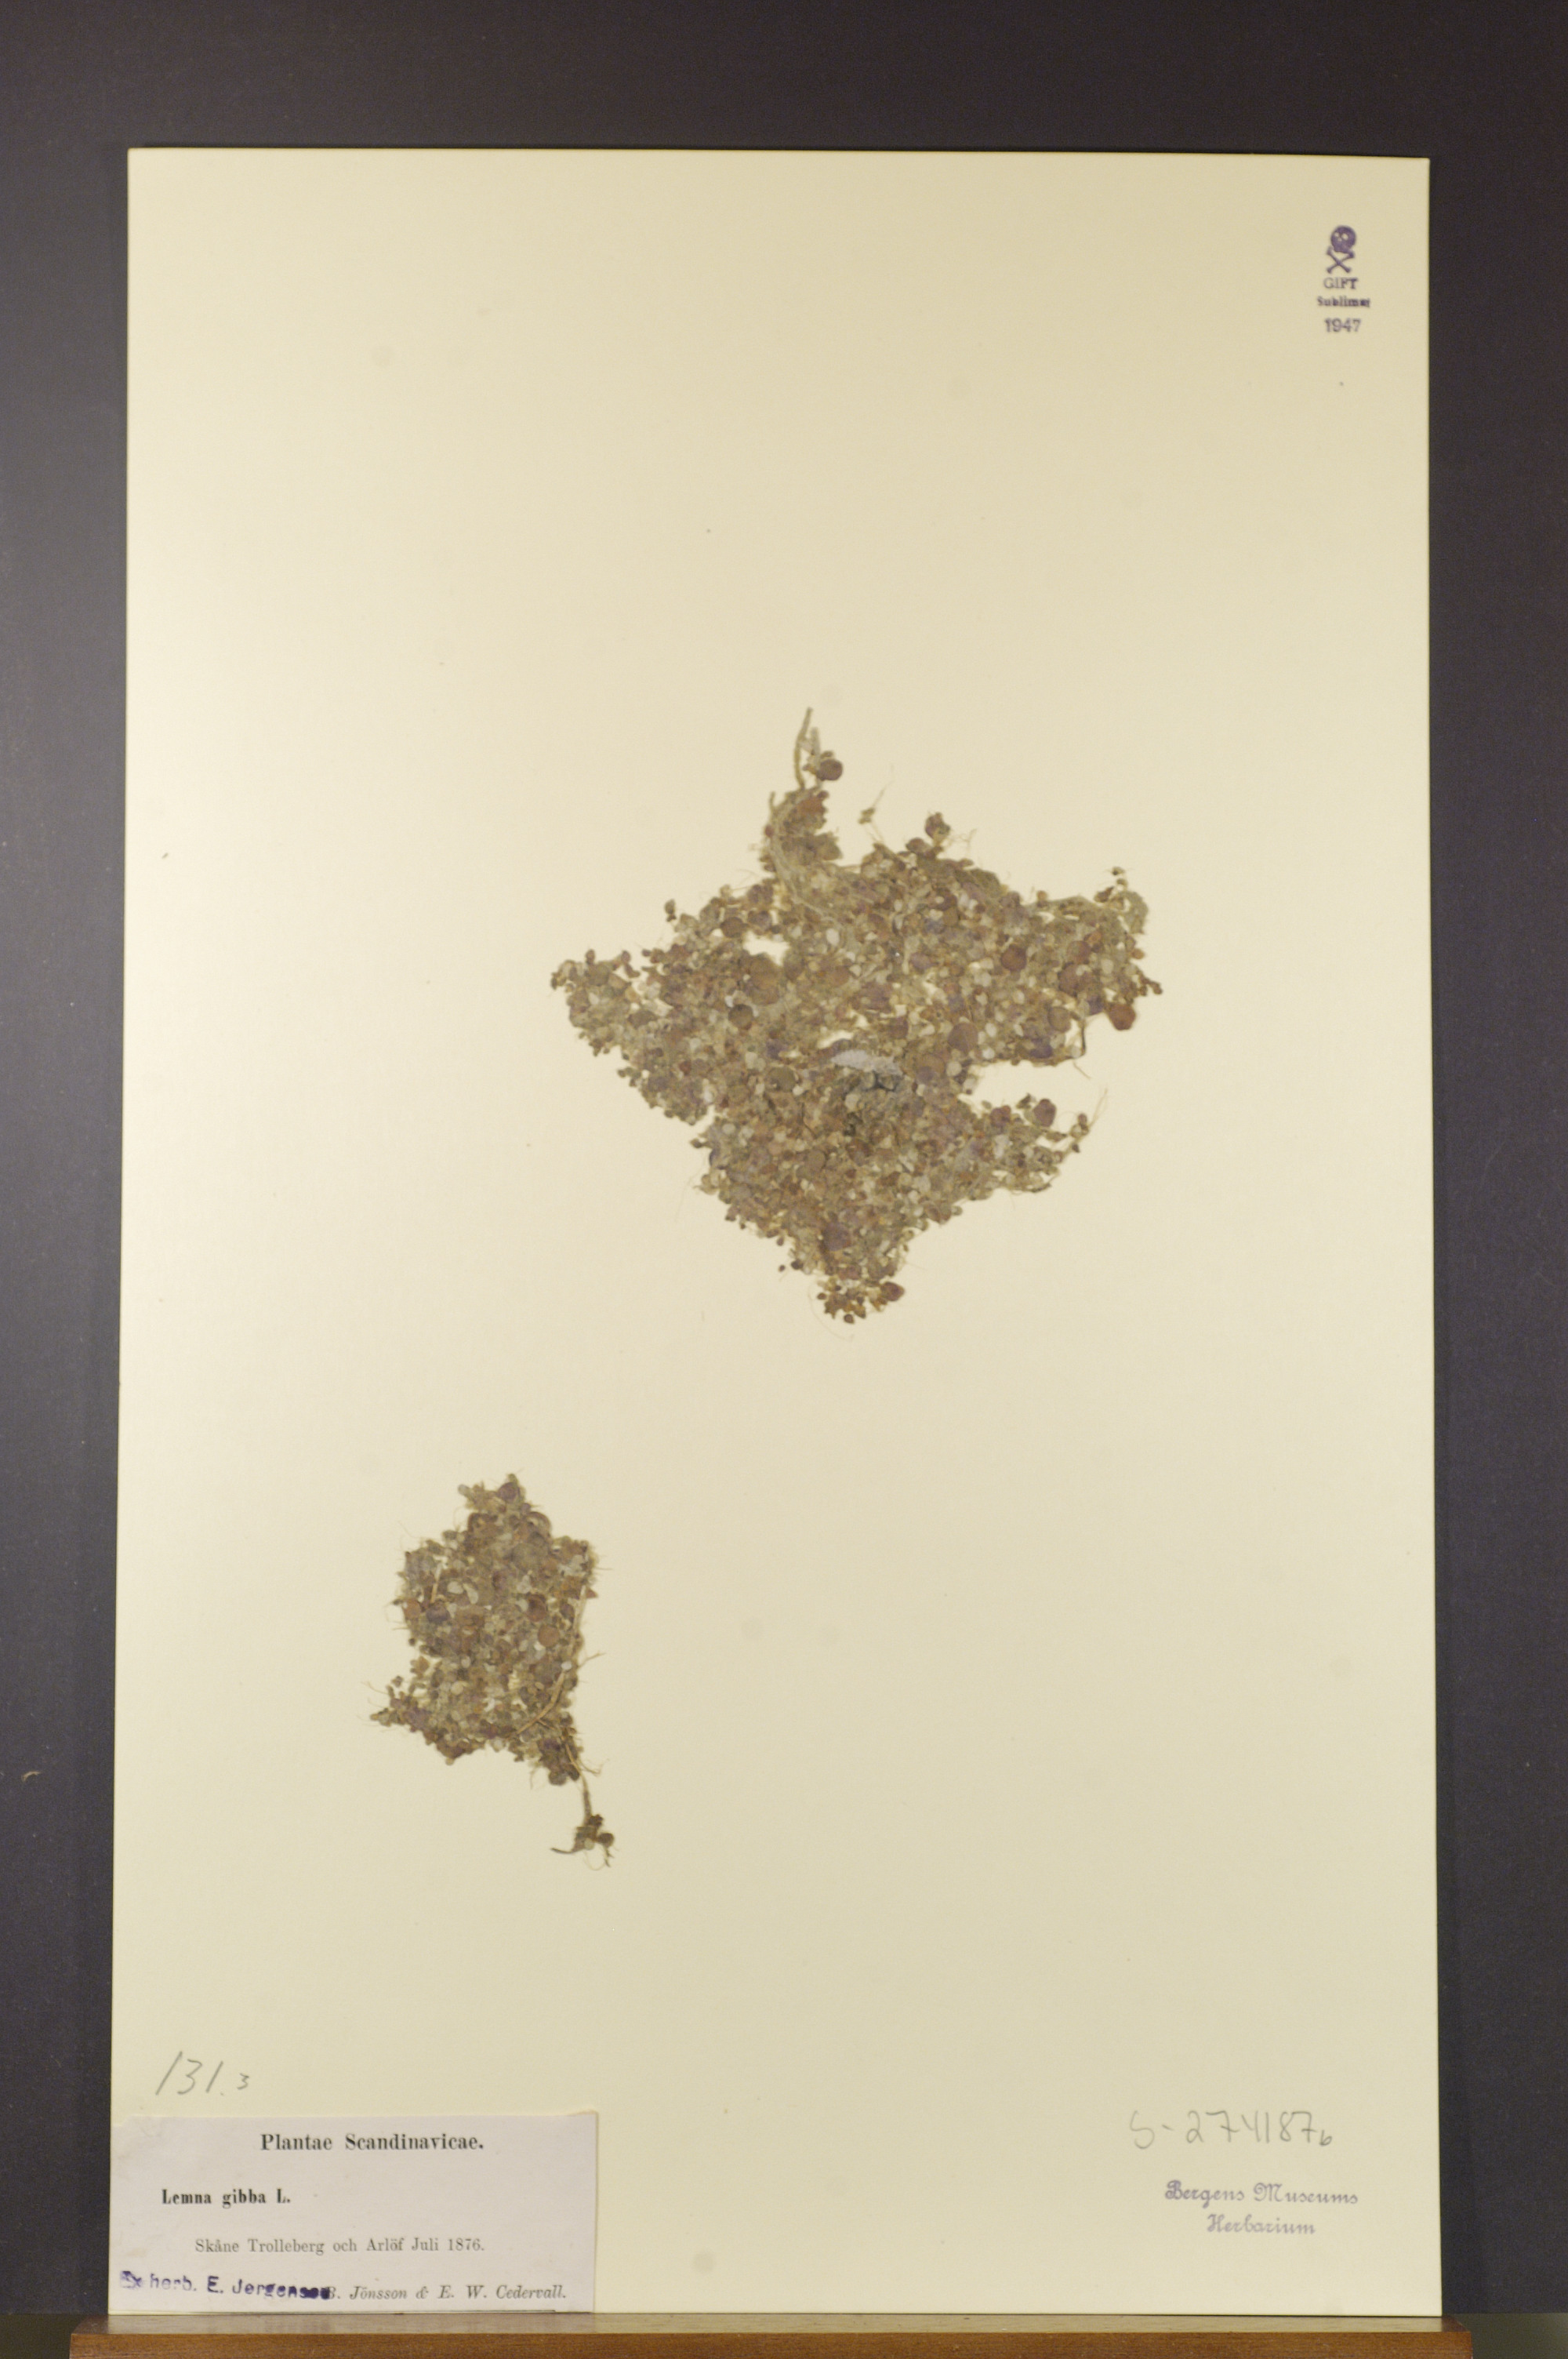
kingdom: Plantae
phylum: Tracheophyta
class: Liliopsida
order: Alismatales
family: Araceae
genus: Lemna
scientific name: Lemna gibba
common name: Fat duckweed
